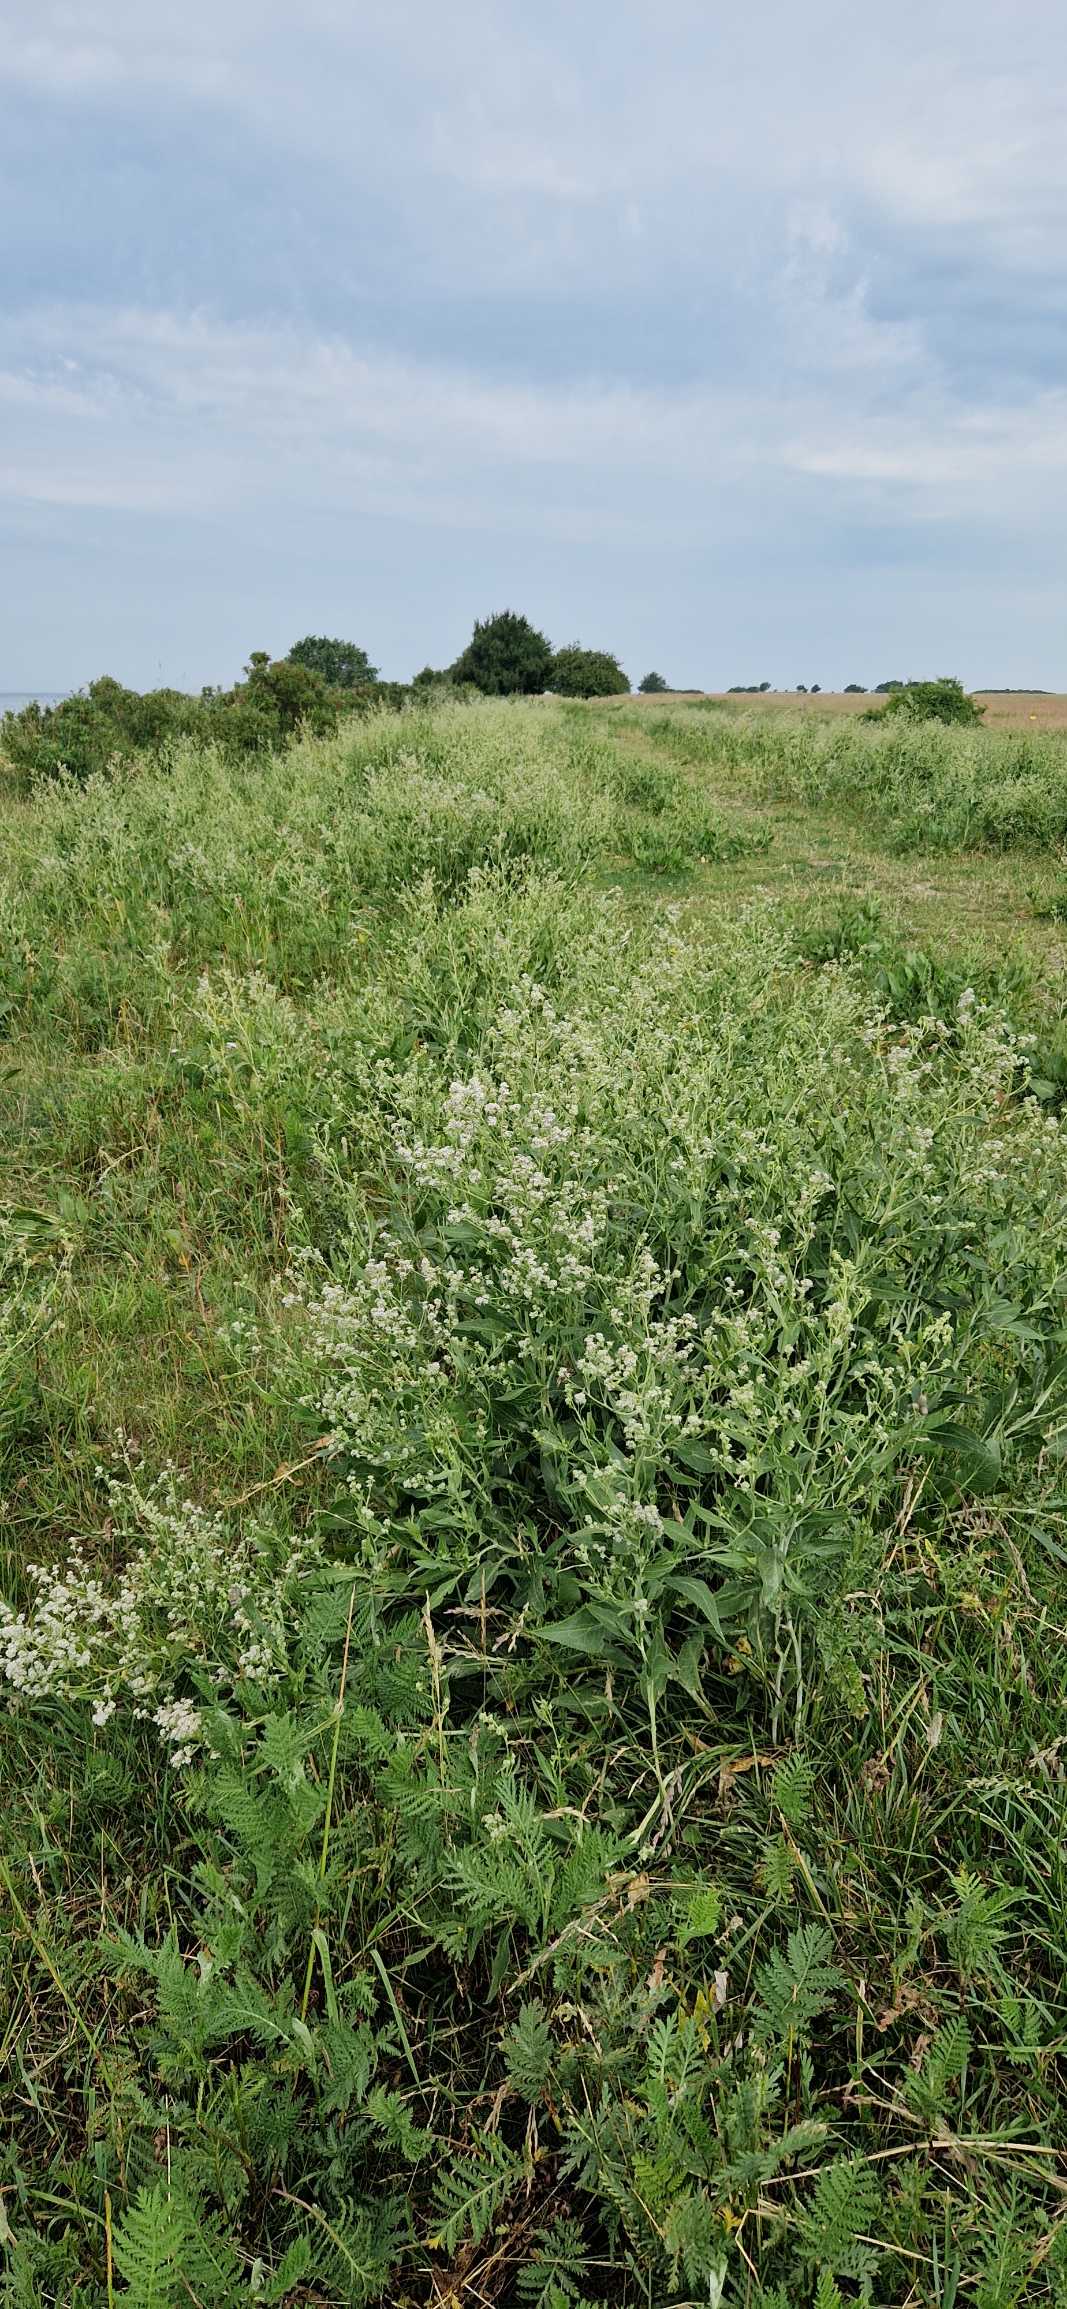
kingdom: Plantae
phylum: Tracheophyta
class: Magnoliopsida
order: Brassicales
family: Brassicaceae
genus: Lepidium
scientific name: Lepidium latifolium
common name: Strand-karse
